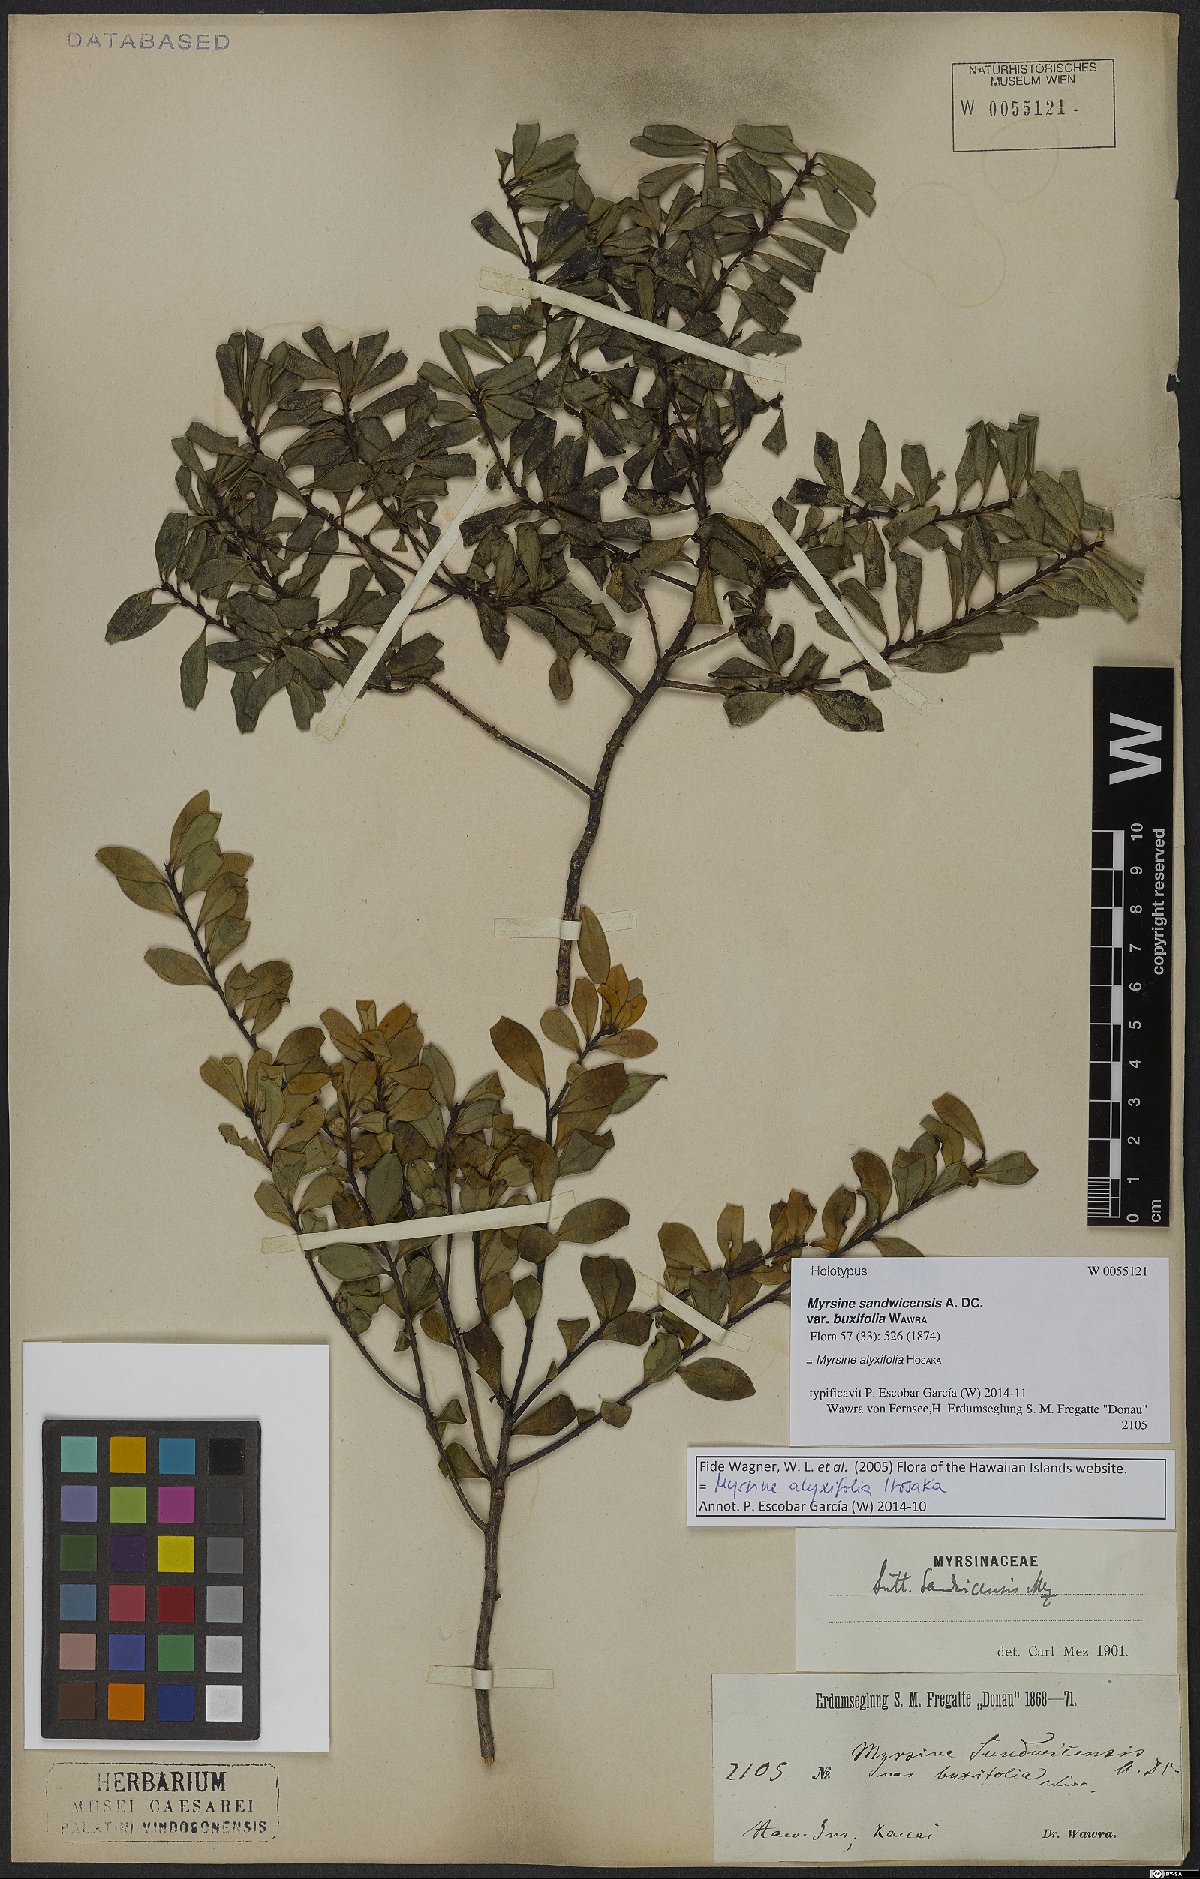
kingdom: Plantae
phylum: Tracheophyta
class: Magnoliopsida
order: Ericales
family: Primulaceae
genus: Myrsine
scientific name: Myrsine alyxifolia
